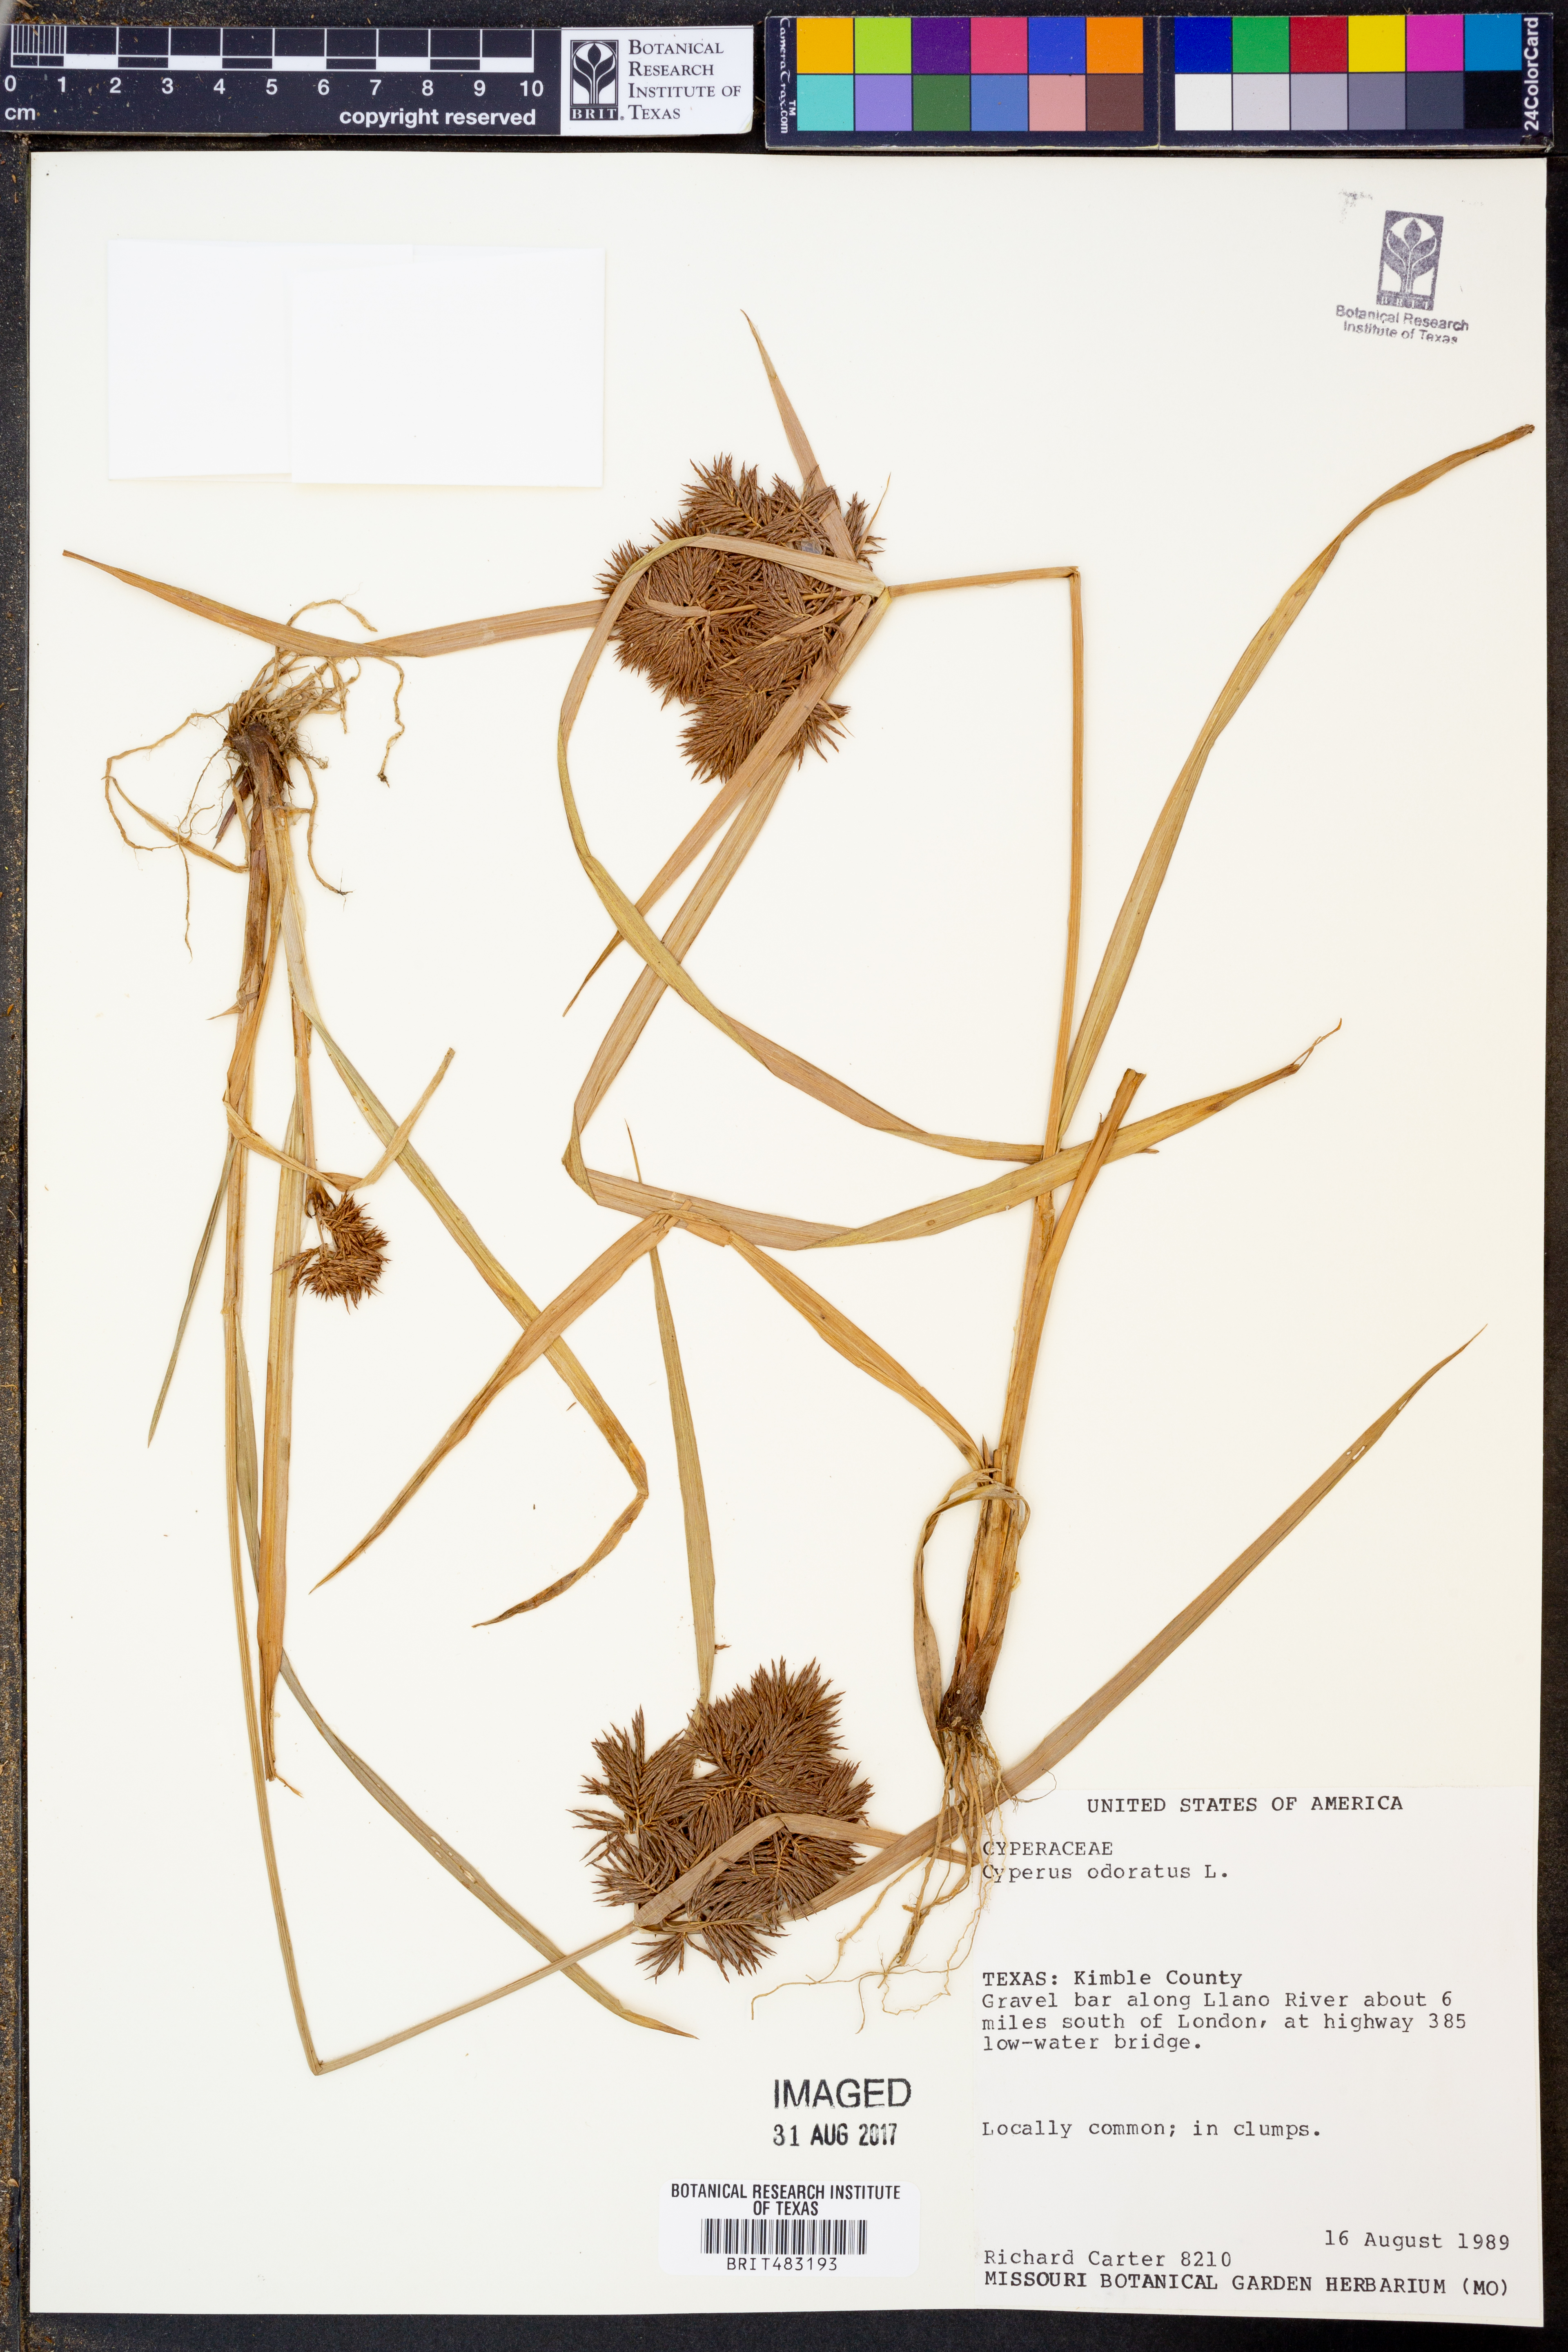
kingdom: Plantae
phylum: Tracheophyta
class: Liliopsida
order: Poales
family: Cyperaceae
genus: Cyperus
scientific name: Cyperus odoratus
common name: Fragrant flatsedge
